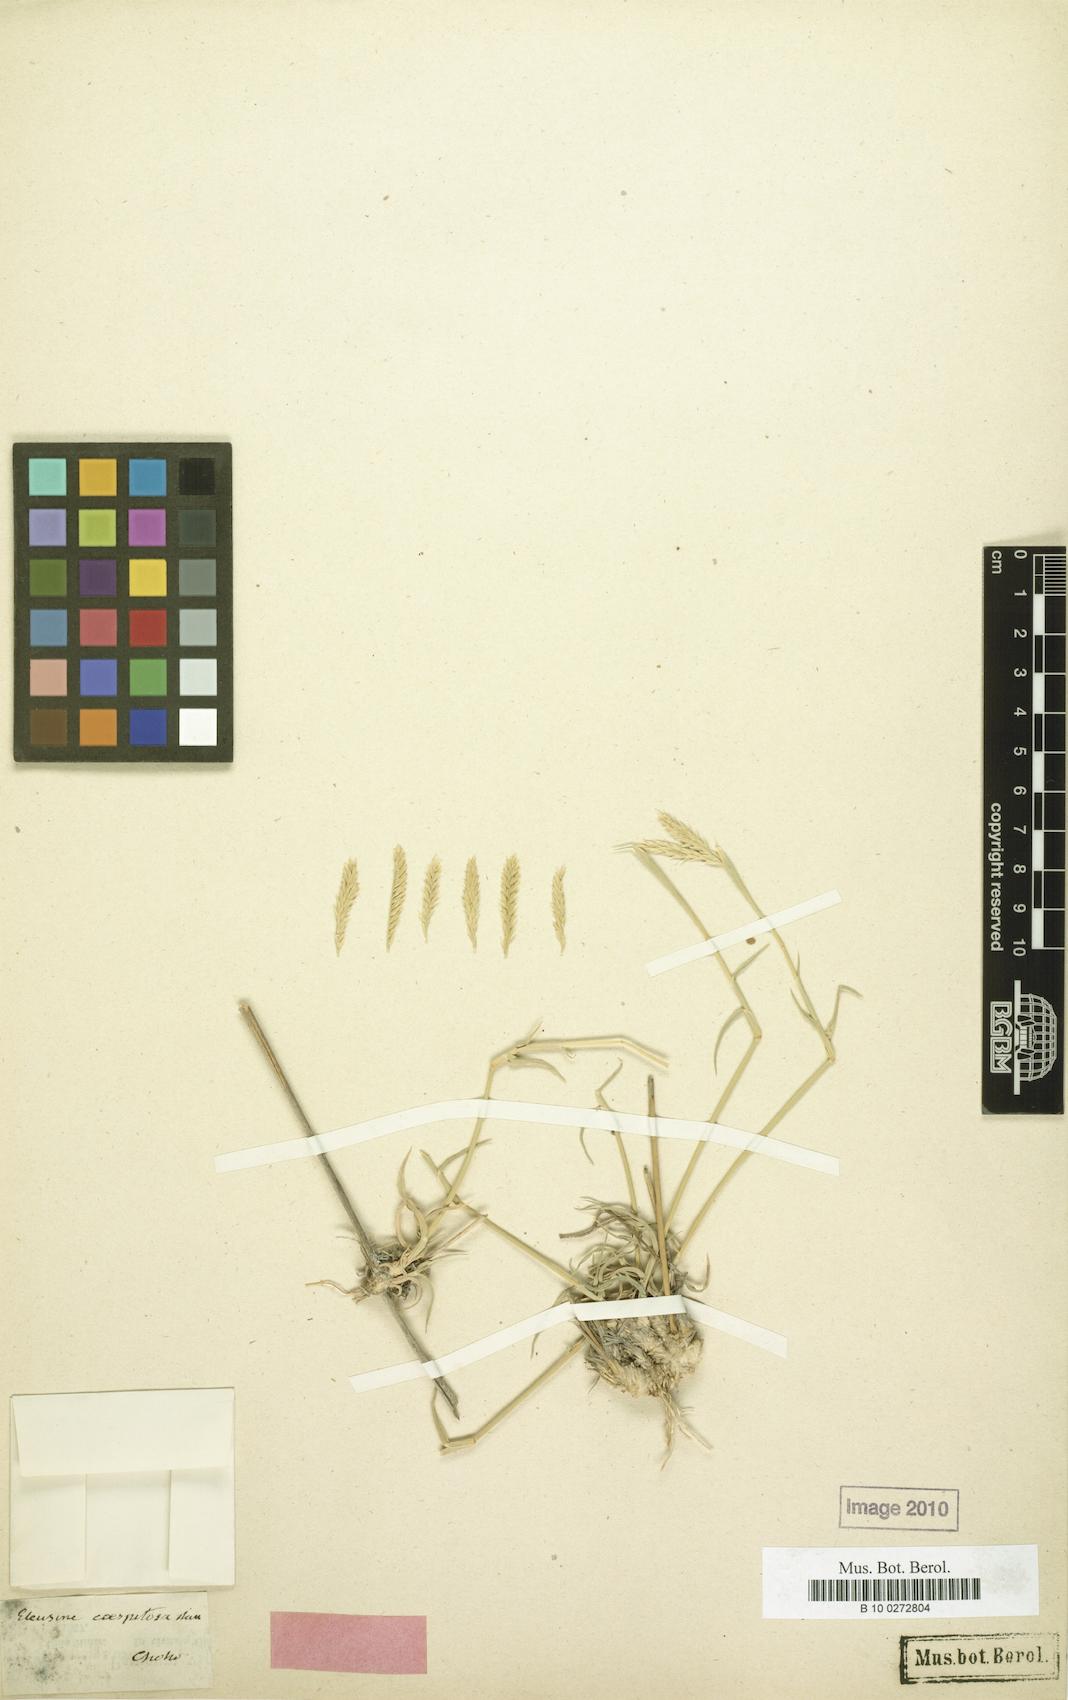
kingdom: Plantae
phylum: Tracheophyta
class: Liliopsida
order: Poales
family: Poaceae
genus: Chloris
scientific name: Chloris flagellifera
